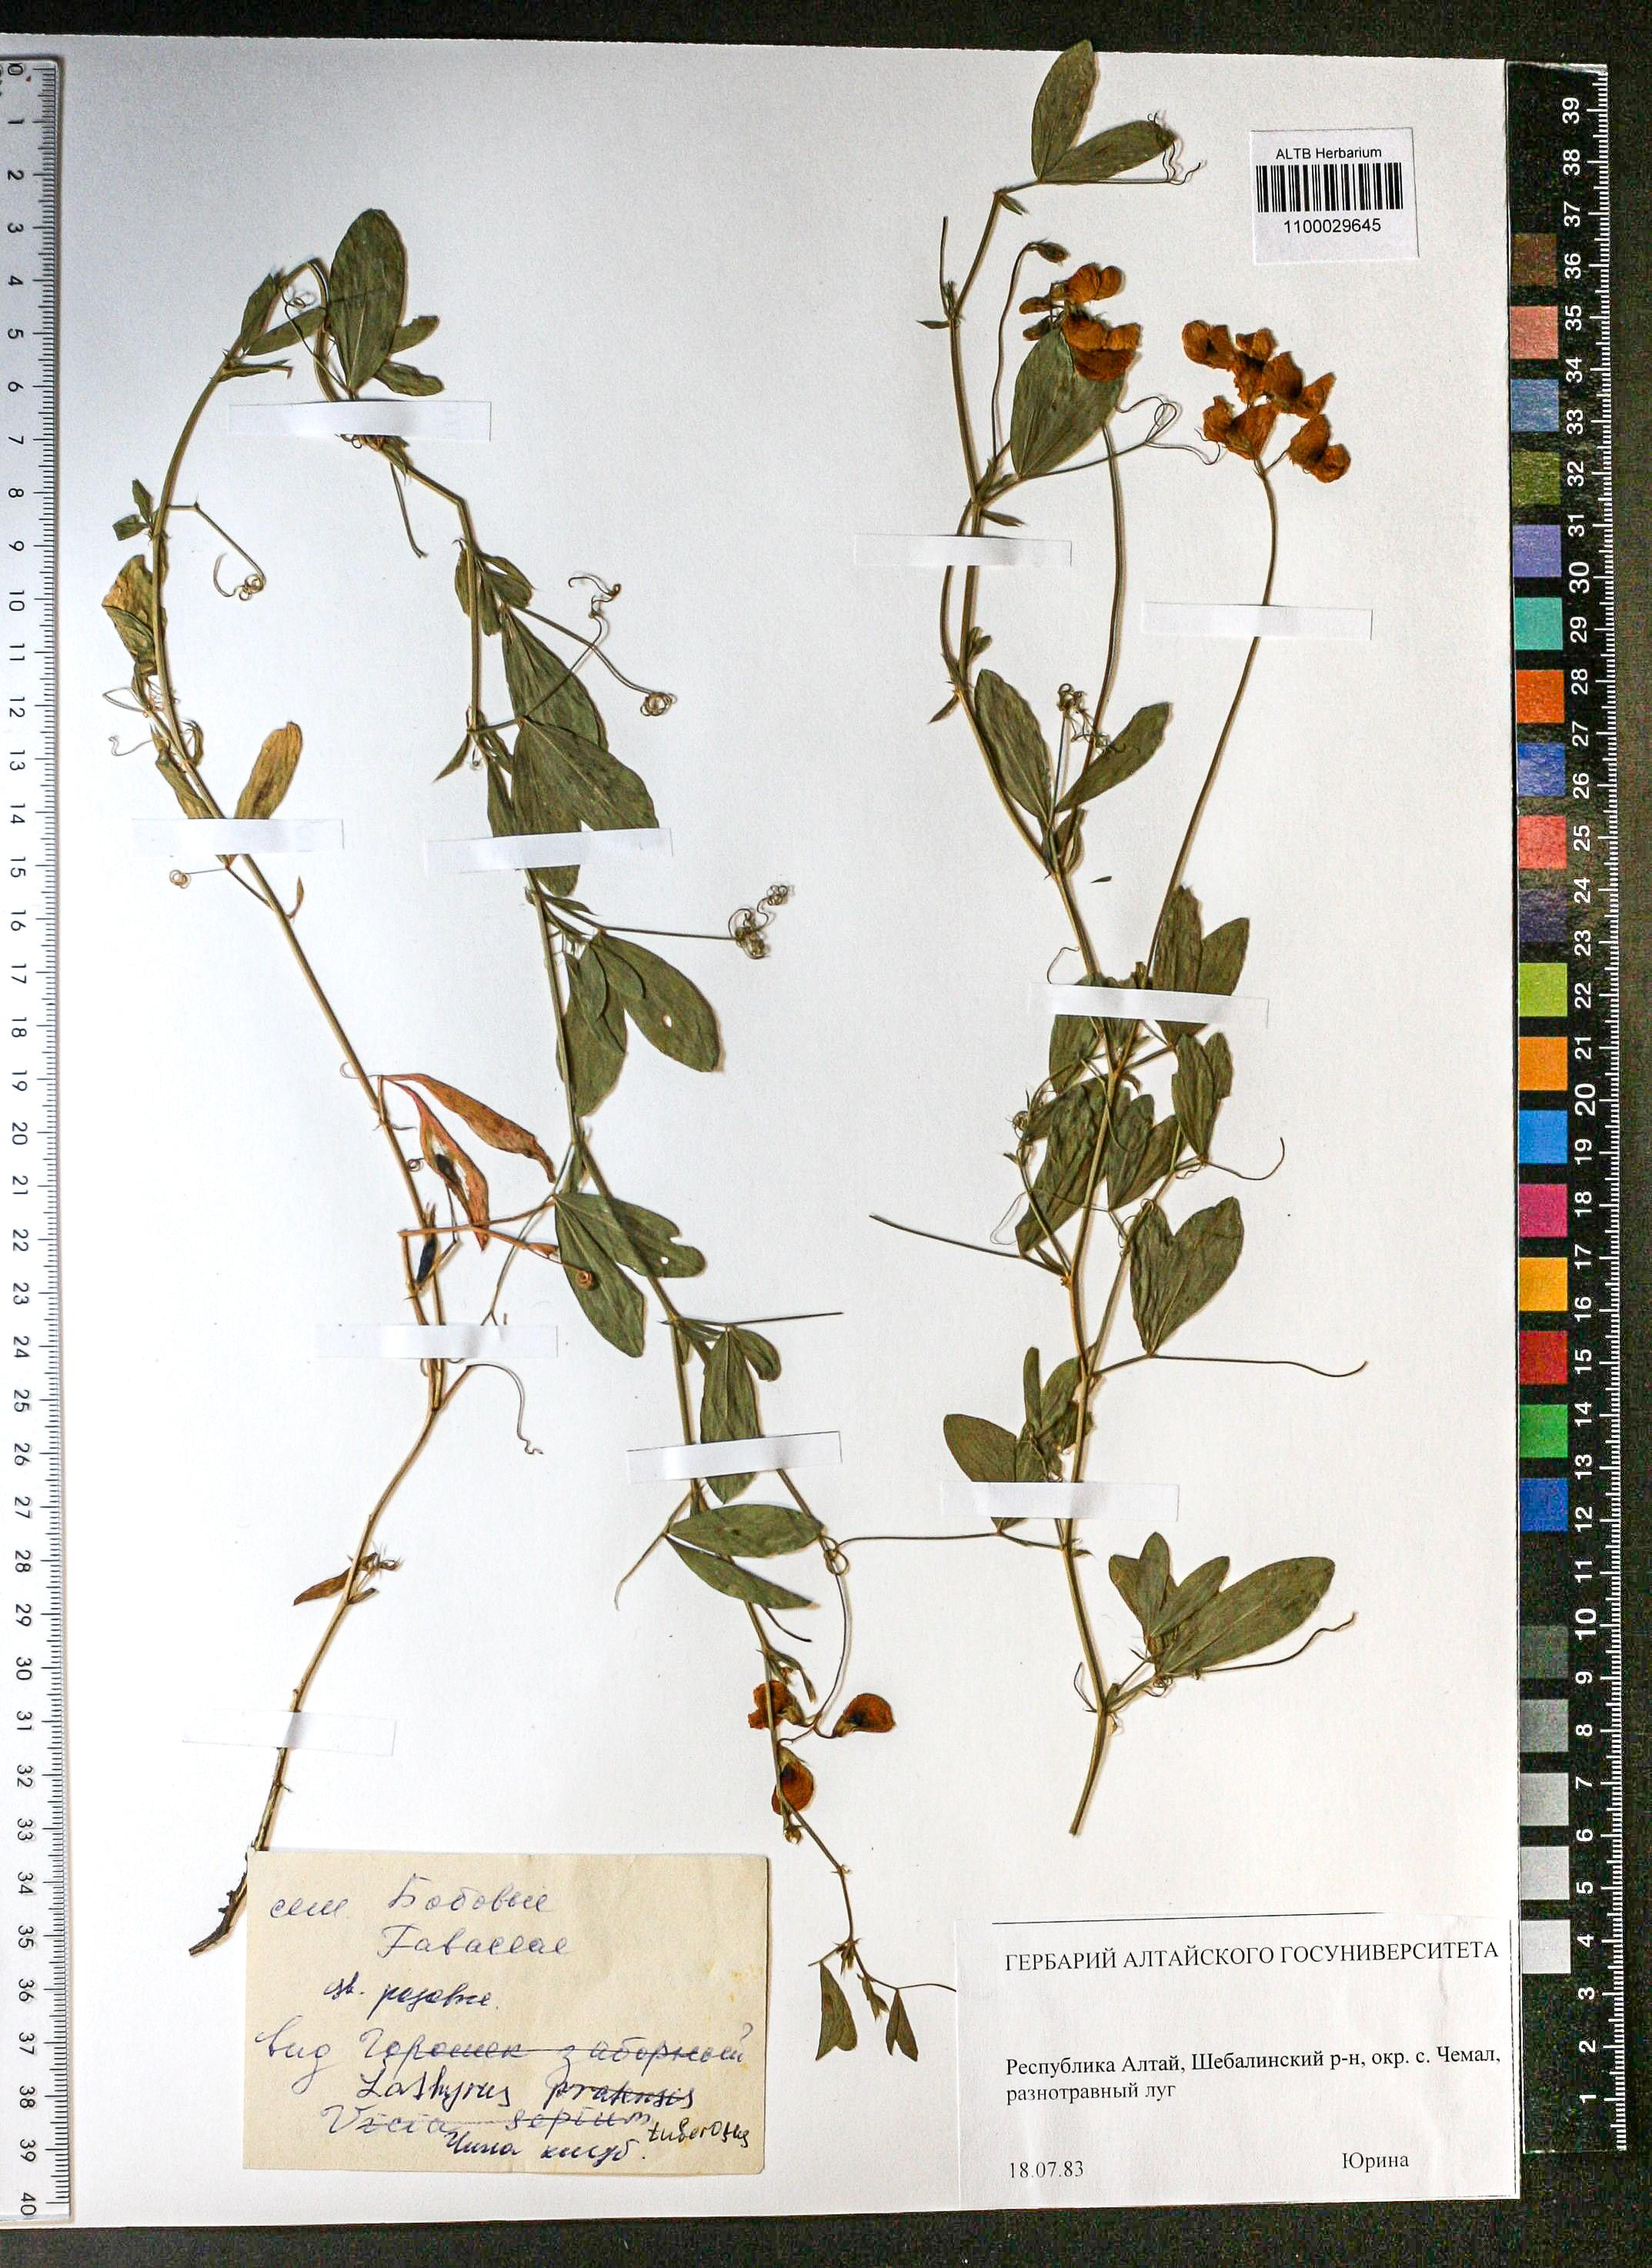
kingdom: Plantae
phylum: Tracheophyta
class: Magnoliopsida
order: Fabales
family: Fabaceae
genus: Lathyrus
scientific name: Lathyrus tuberosus
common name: Tuberous pea
